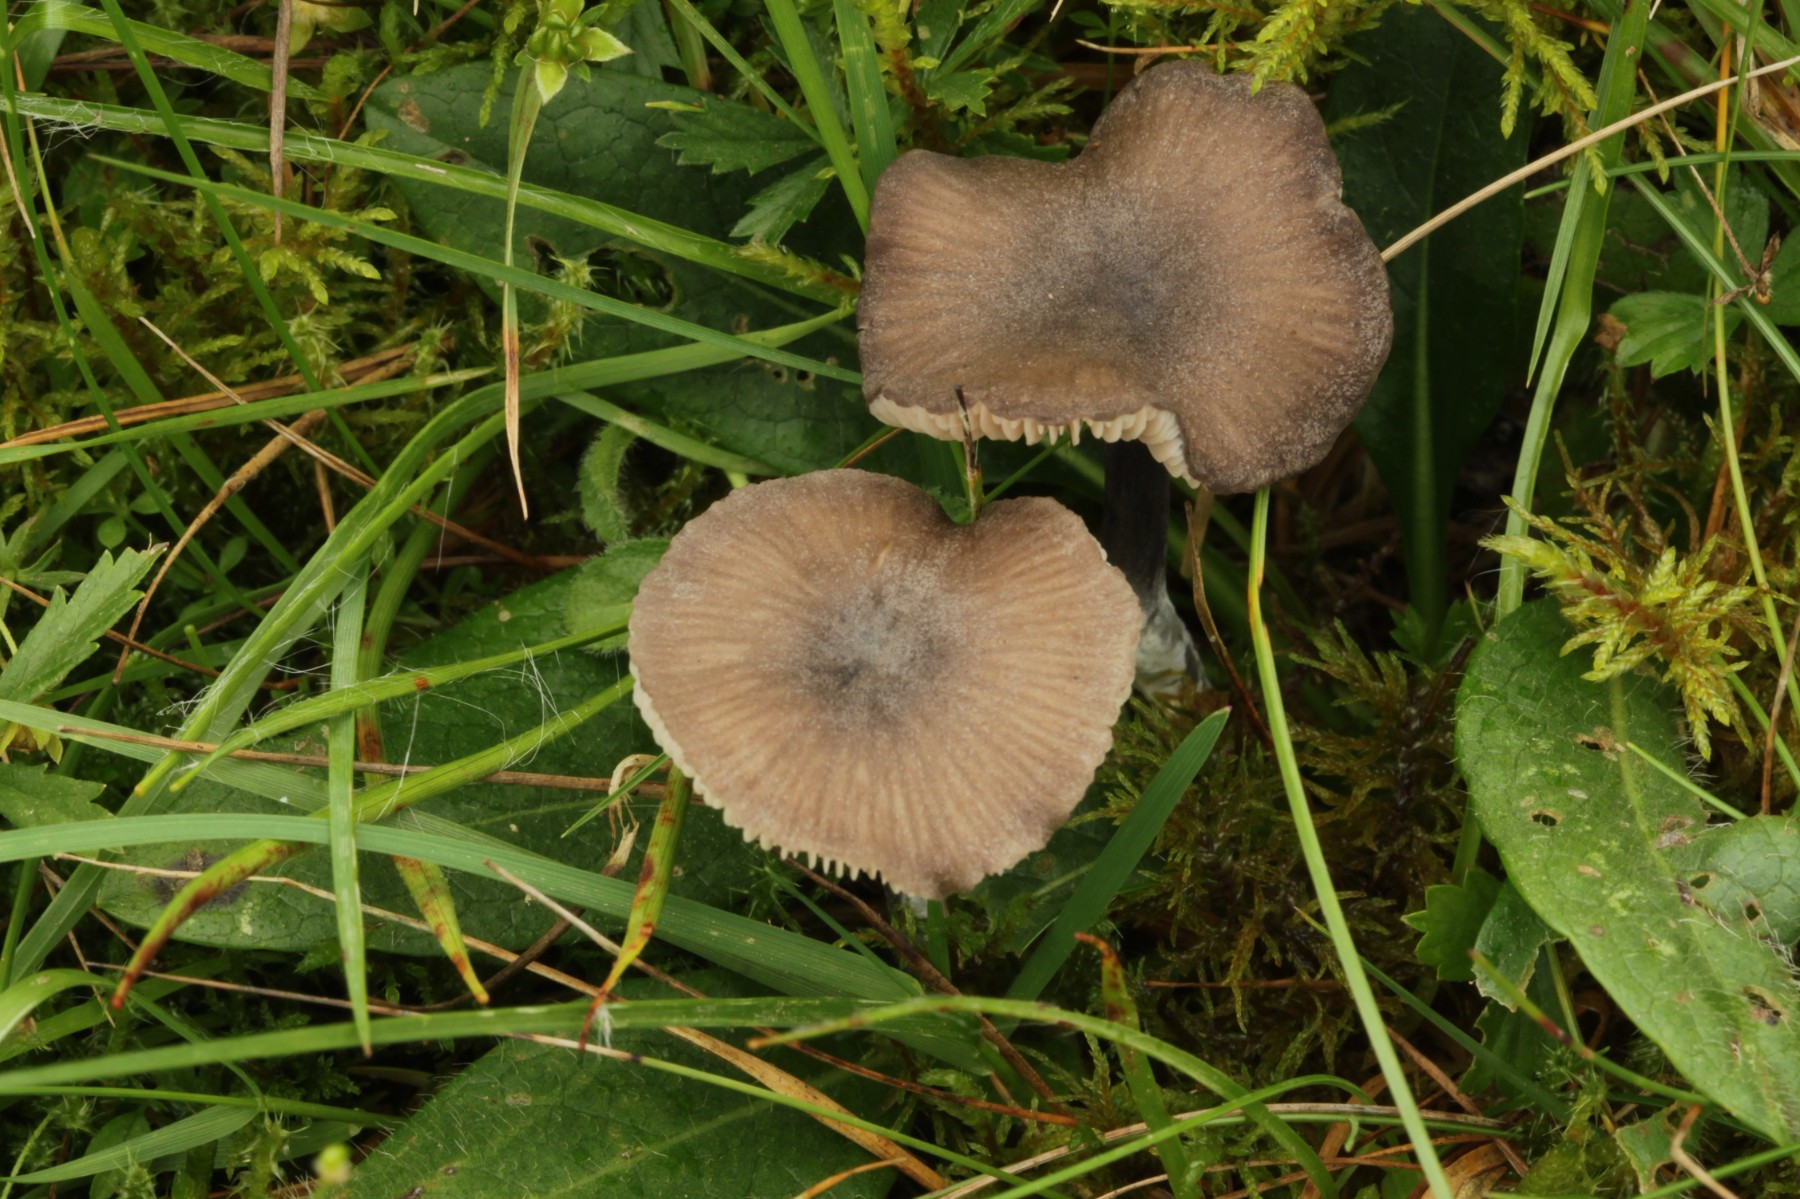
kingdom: Fungi
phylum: Basidiomycota
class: Agaricomycetes
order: Agaricales
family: Entolomataceae
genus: Entoloma
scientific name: Entoloma
